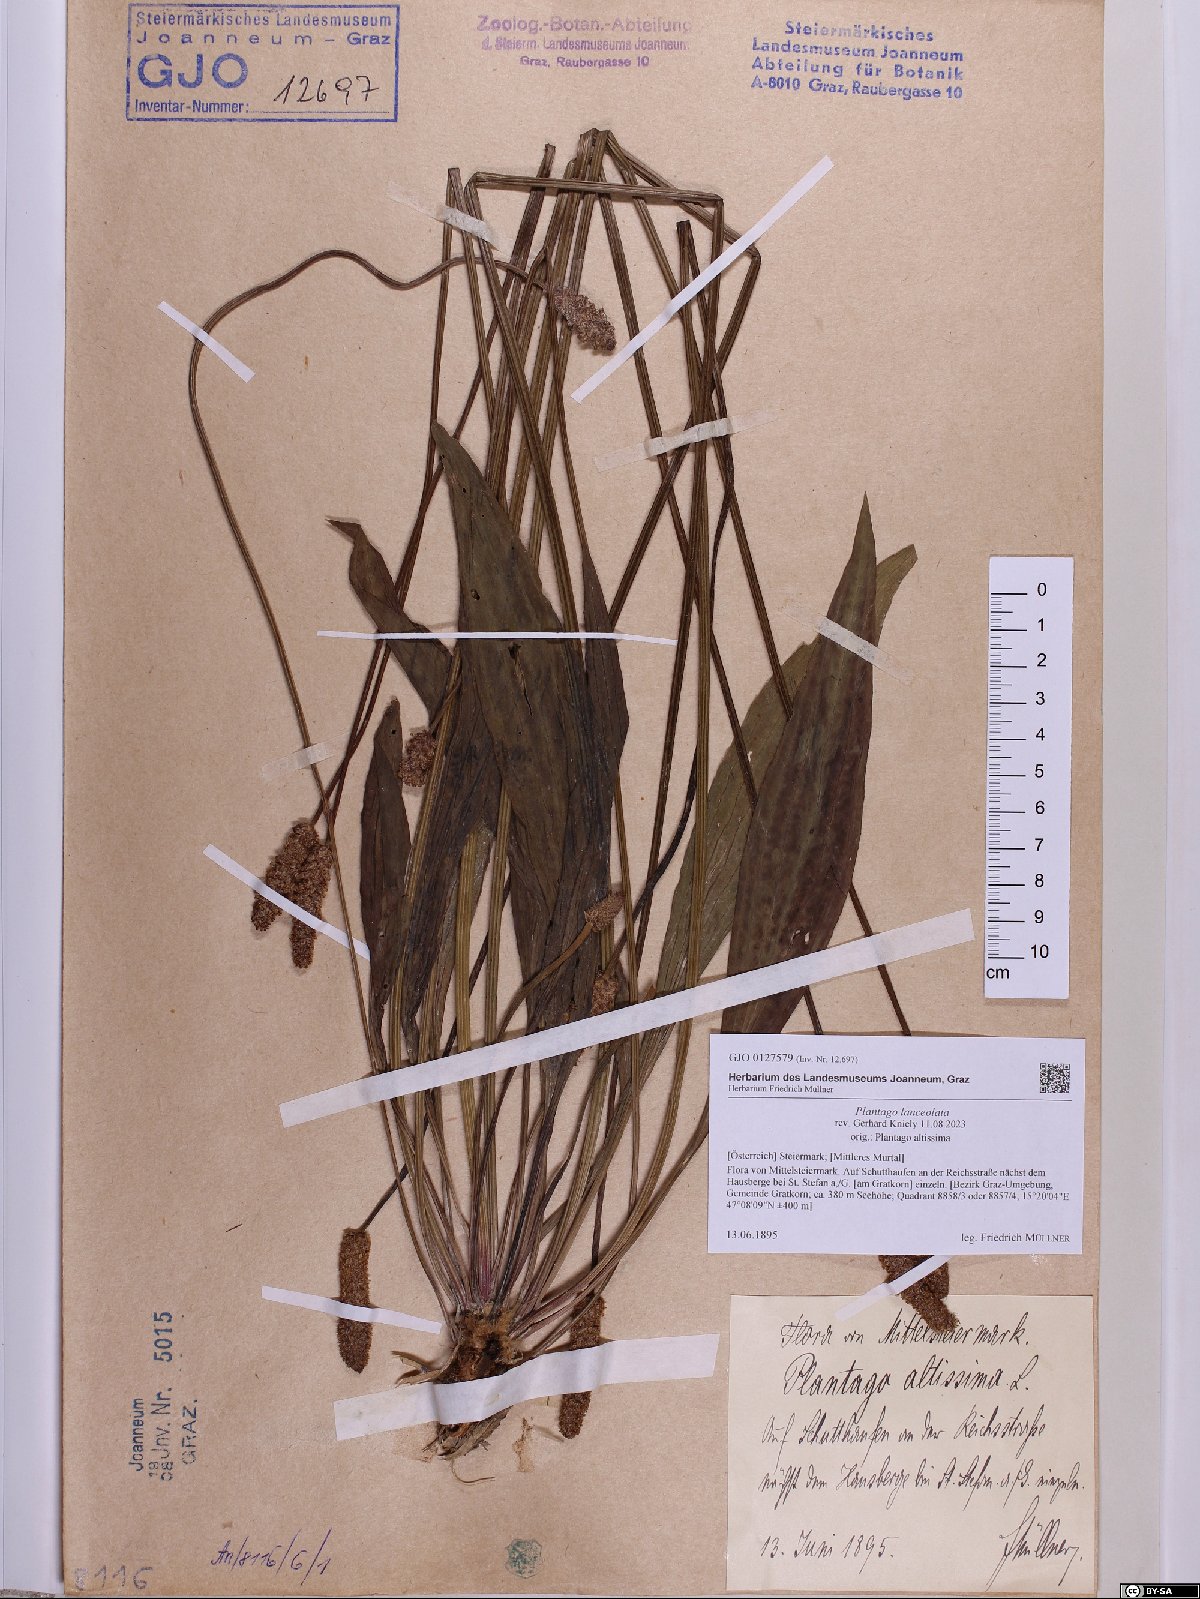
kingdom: Plantae
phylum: Tracheophyta
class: Magnoliopsida
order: Lamiales
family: Plantaginaceae
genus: Plantago
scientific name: Plantago lanceolata
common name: Ribwort plantain
